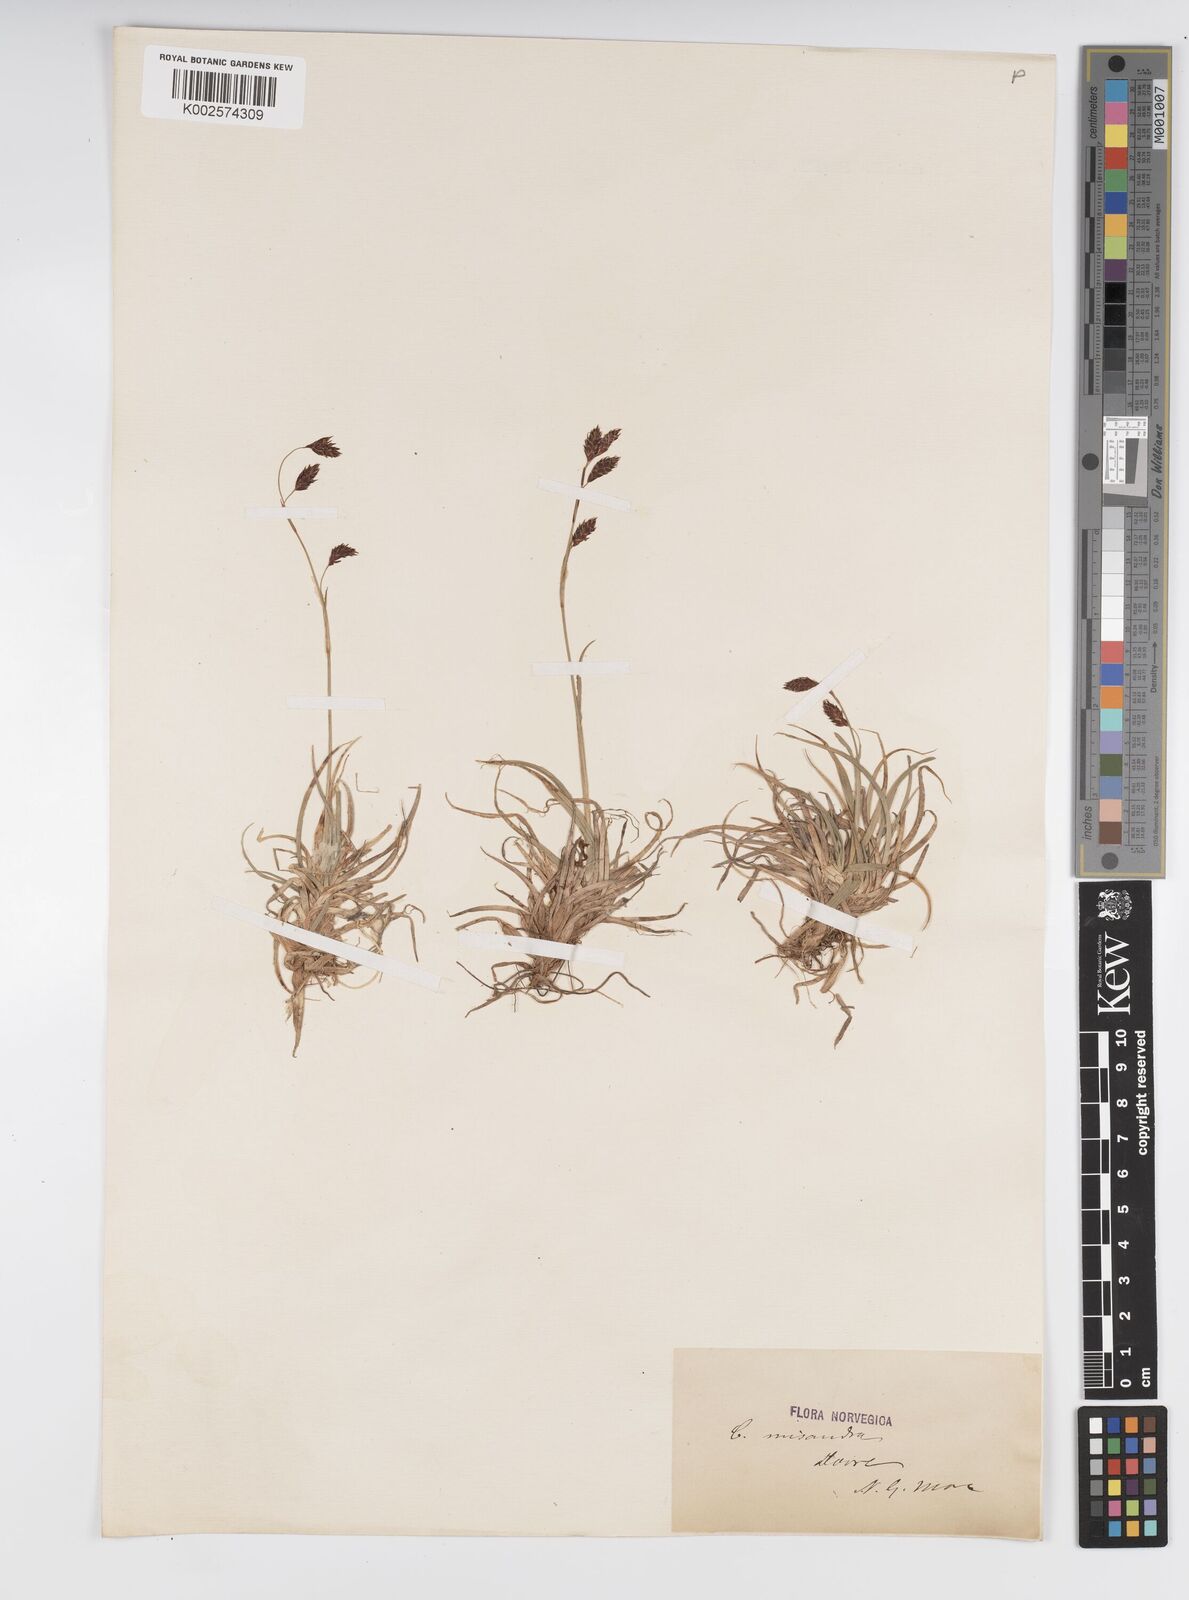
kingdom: Plantae
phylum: Tracheophyta
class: Liliopsida
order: Poales
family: Cyperaceae
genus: Carex
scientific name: Carex fuliginosa
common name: Few-flowered sedge
